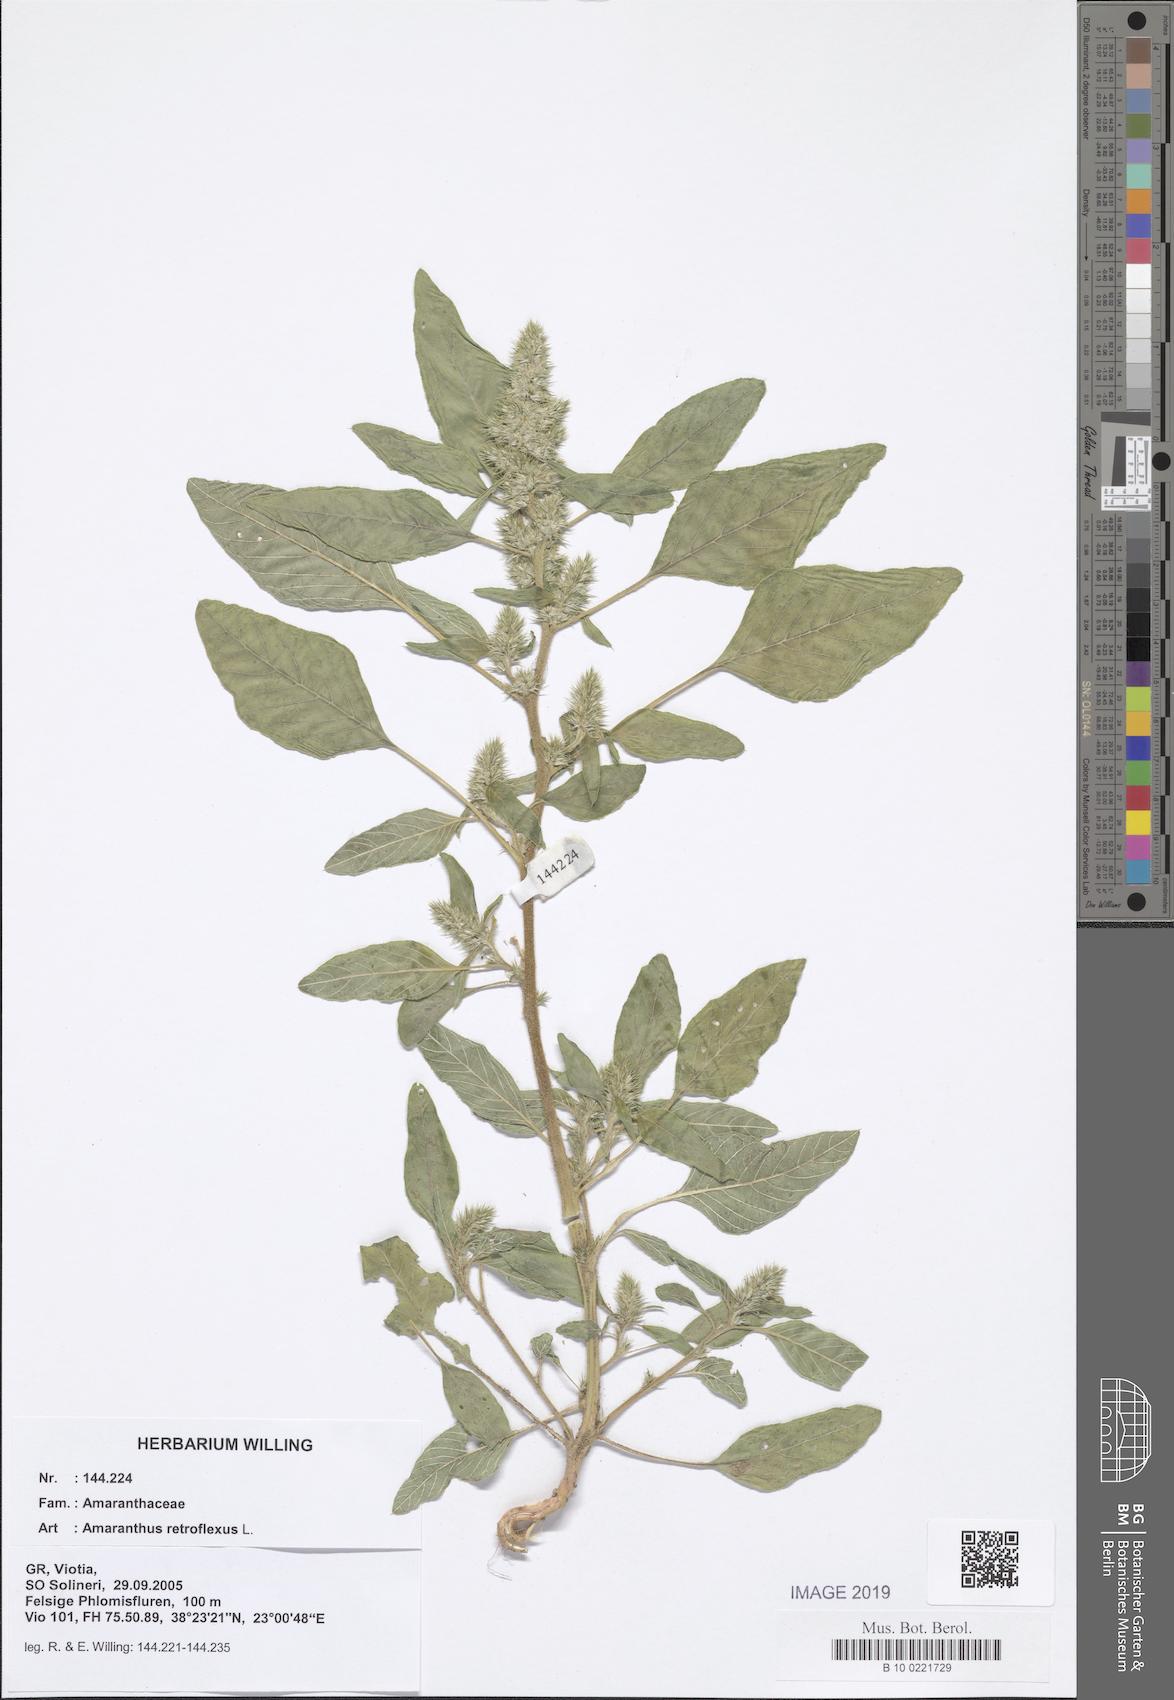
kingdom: Plantae
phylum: Tracheophyta
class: Magnoliopsida
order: Caryophyllales
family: Amaranthaceae
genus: Amaranthus
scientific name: Amaranthus retroflexus
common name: Redroot amaranth
